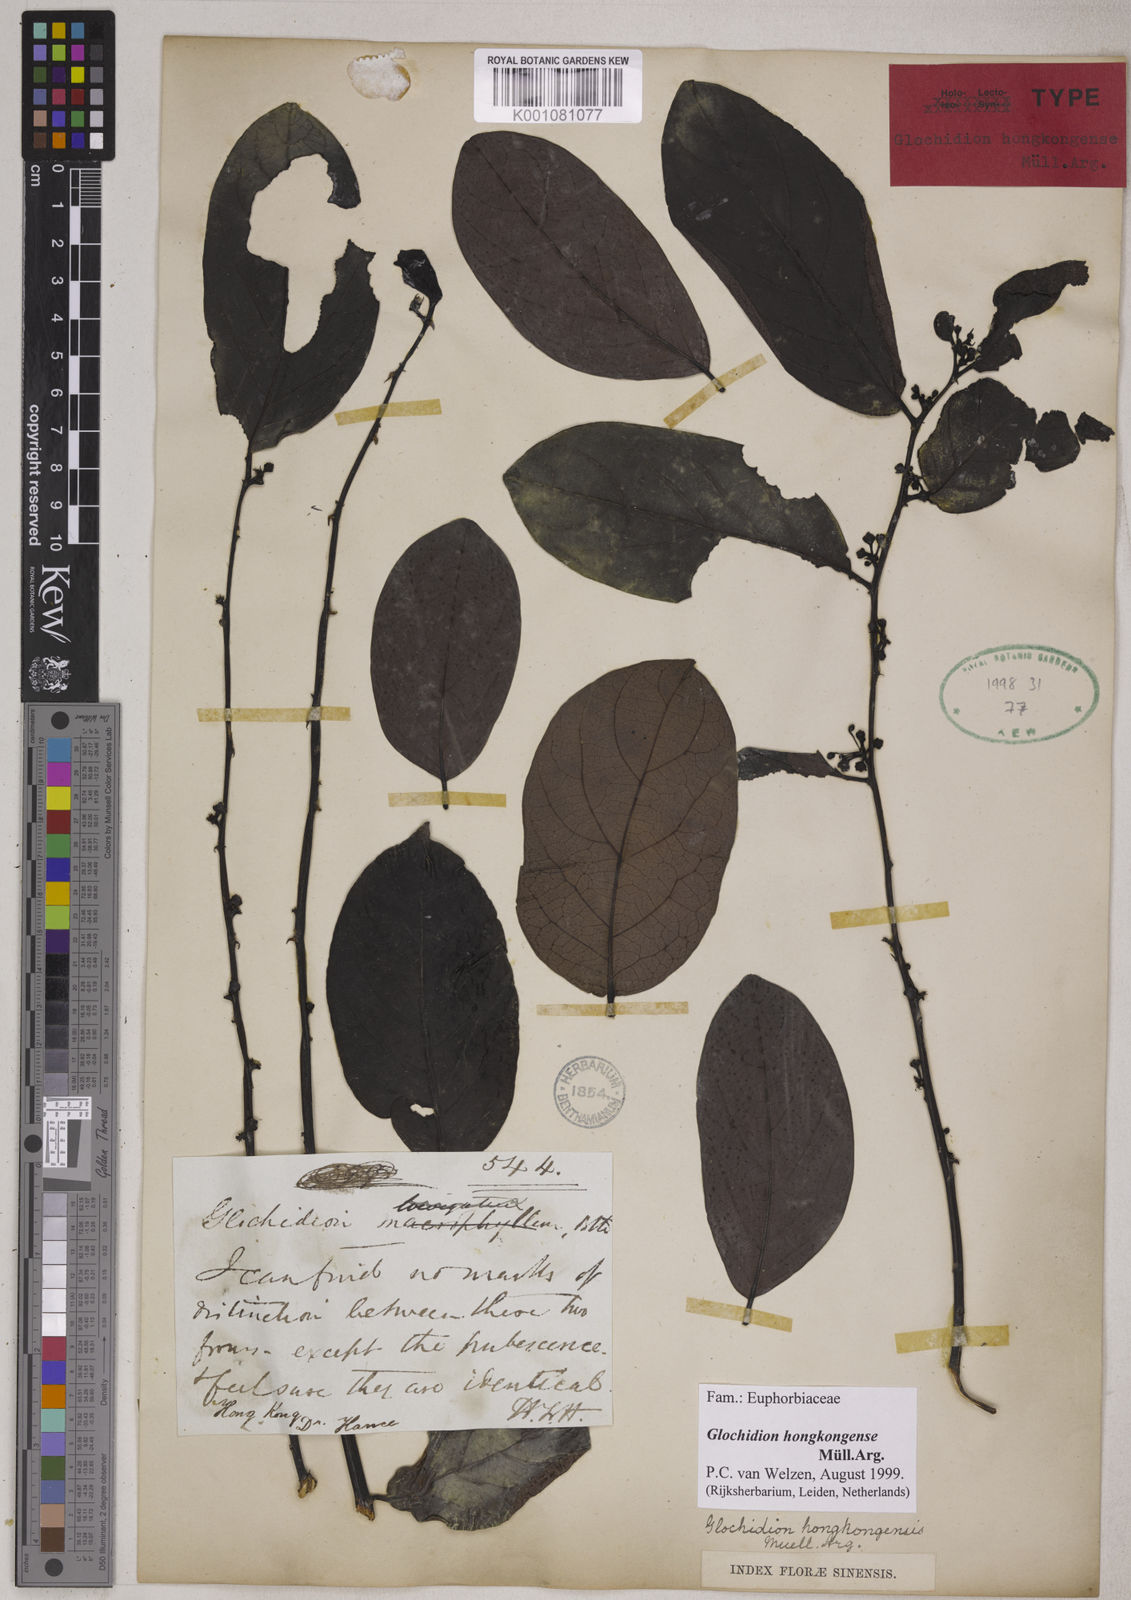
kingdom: Plantae
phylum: Tracheophyta
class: Magnoliopsida
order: Malpighiales
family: Phyllanthaceae
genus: Glochidion
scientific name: Glochidion zeylanicum
